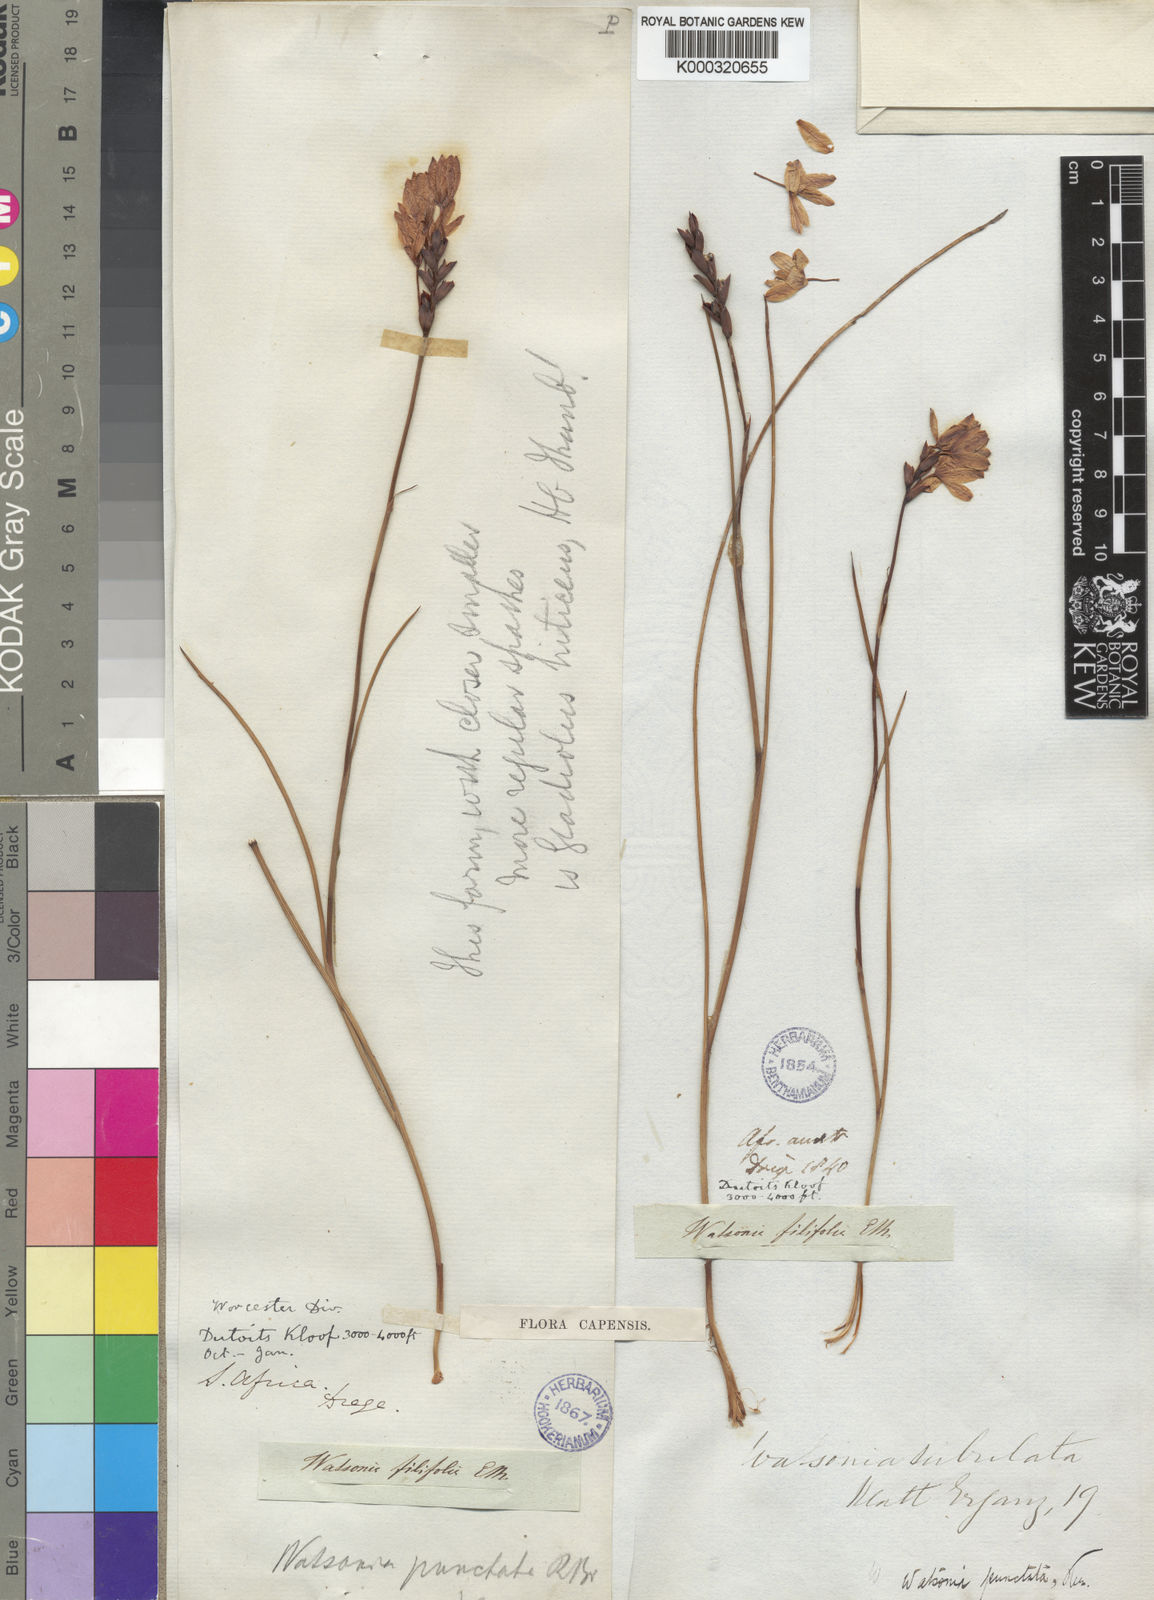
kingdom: Plantae
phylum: Tracheophyta
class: Liliopsida
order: Asparagales
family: Iridaceae
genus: Thereianthus
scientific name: Thereianthus spicatus
